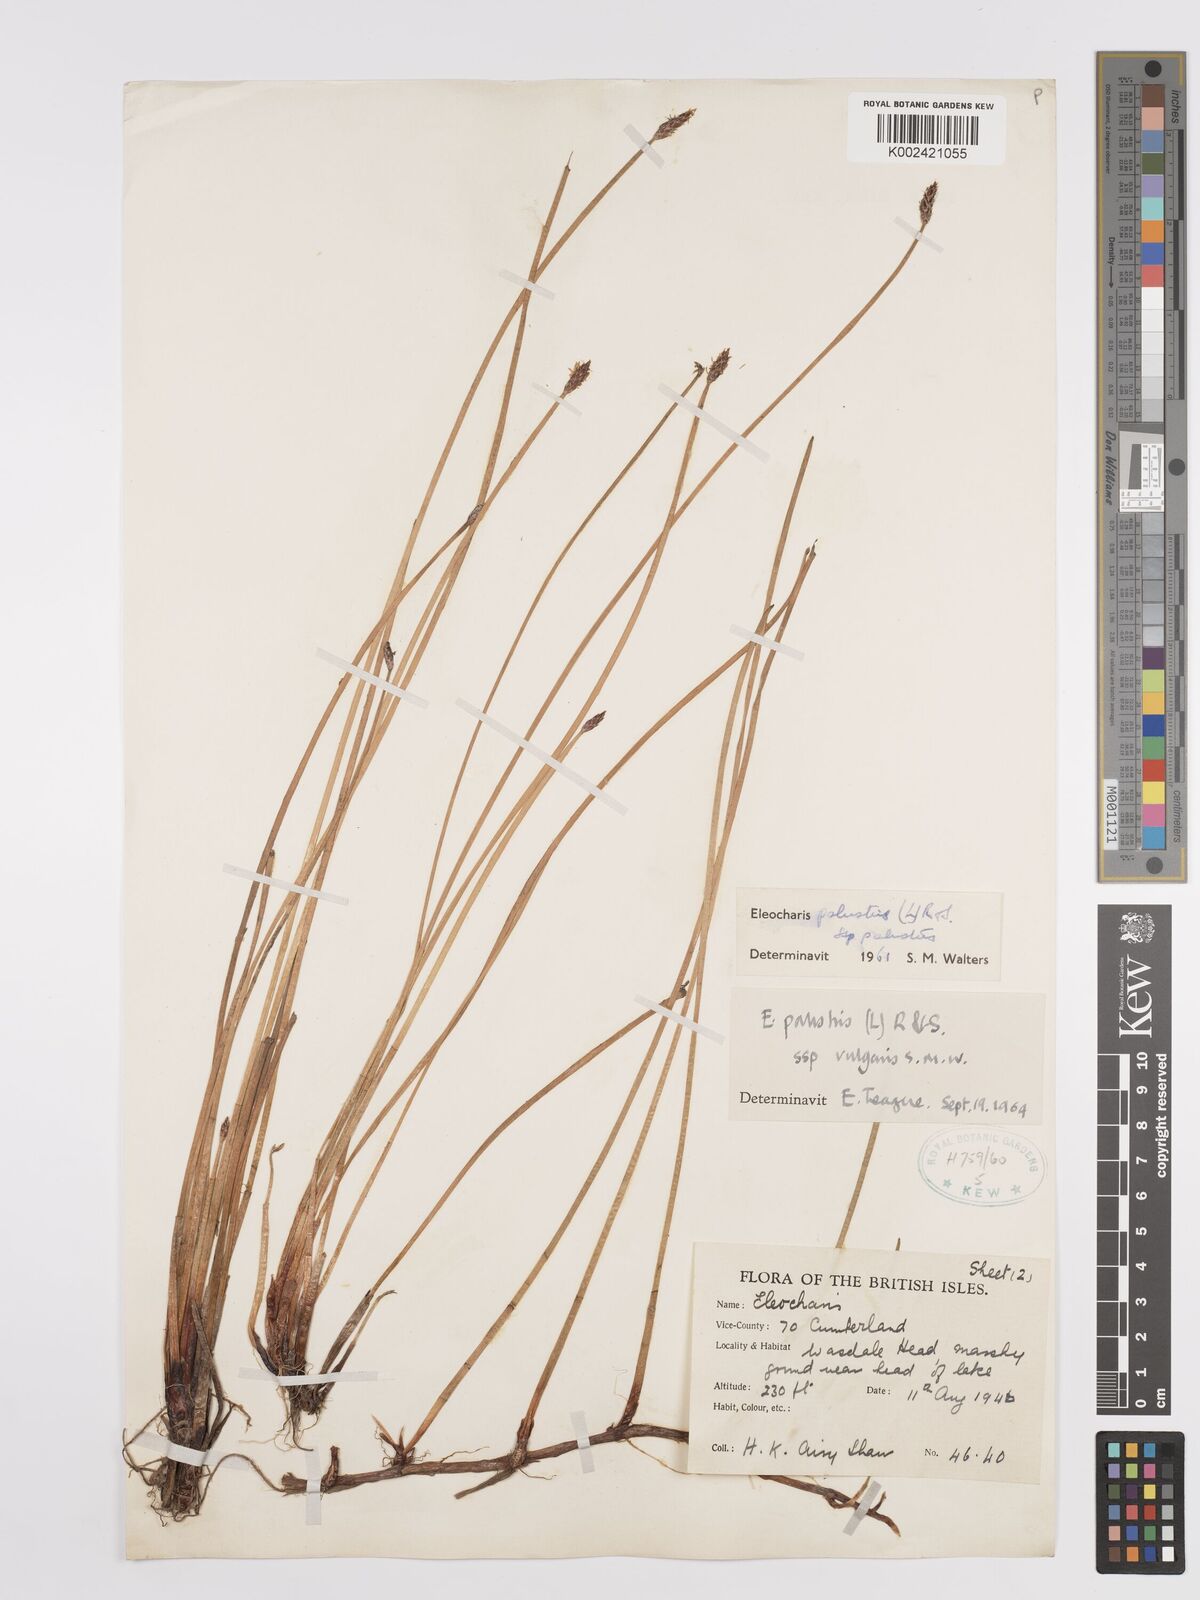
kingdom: Plantae
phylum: Tracheophyta
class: Liliopsida
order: Poales
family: Cyperaceae
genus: Eleocharis
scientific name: Eleocharis palustris
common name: Common spike-rush
